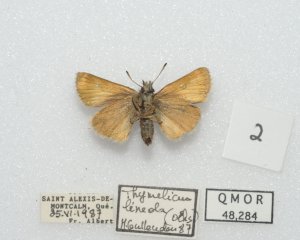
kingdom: Animalia
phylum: Arthropoda
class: Insecta
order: Lepidoptera
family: Hesperiidae
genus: Thymelicus
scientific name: Thymelicus lineola
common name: European Skipper
